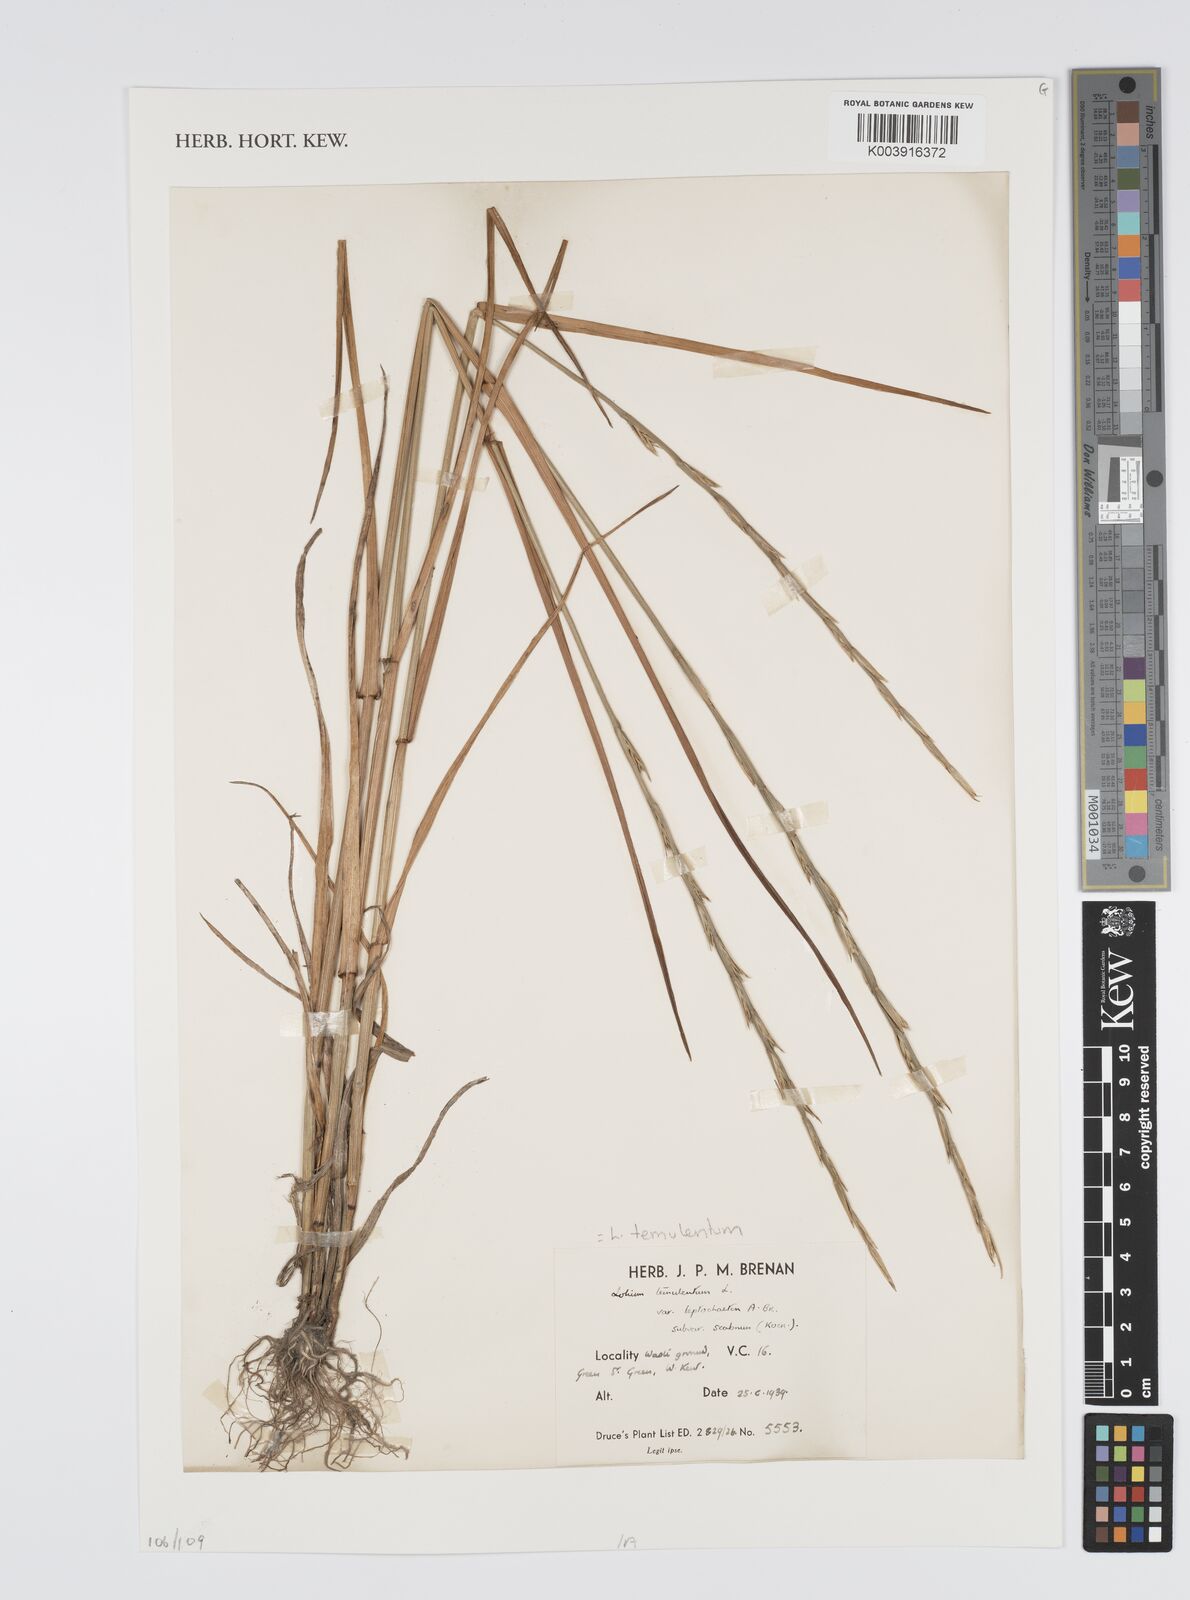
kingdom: Plantae
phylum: Tracheophyta
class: Liliopsida
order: Poales
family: Poaceae
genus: Lolium
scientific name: Lolium temulentum
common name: Darnel
